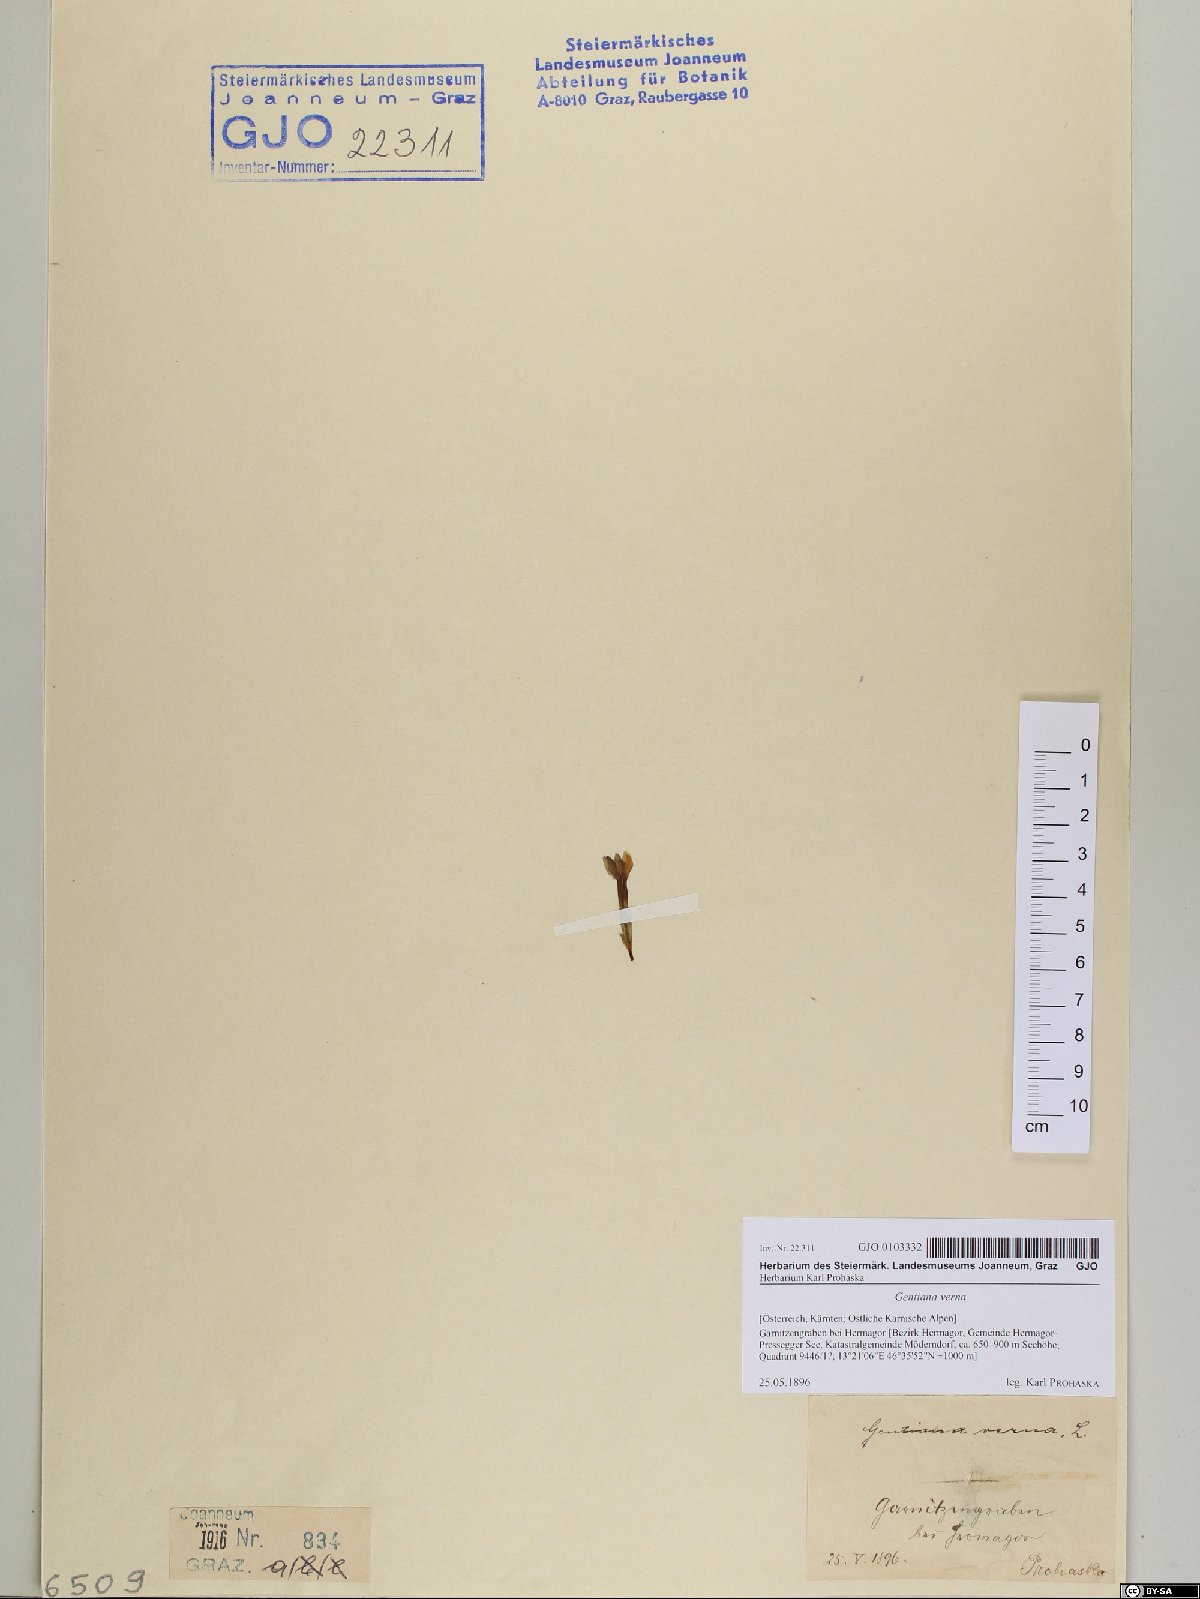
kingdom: Plantae
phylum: Tracheophyta
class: Magnoliopsida
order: Gentianales
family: Gentianaceae
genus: Gentiana
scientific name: Gentiana verna
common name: Spring gentian
